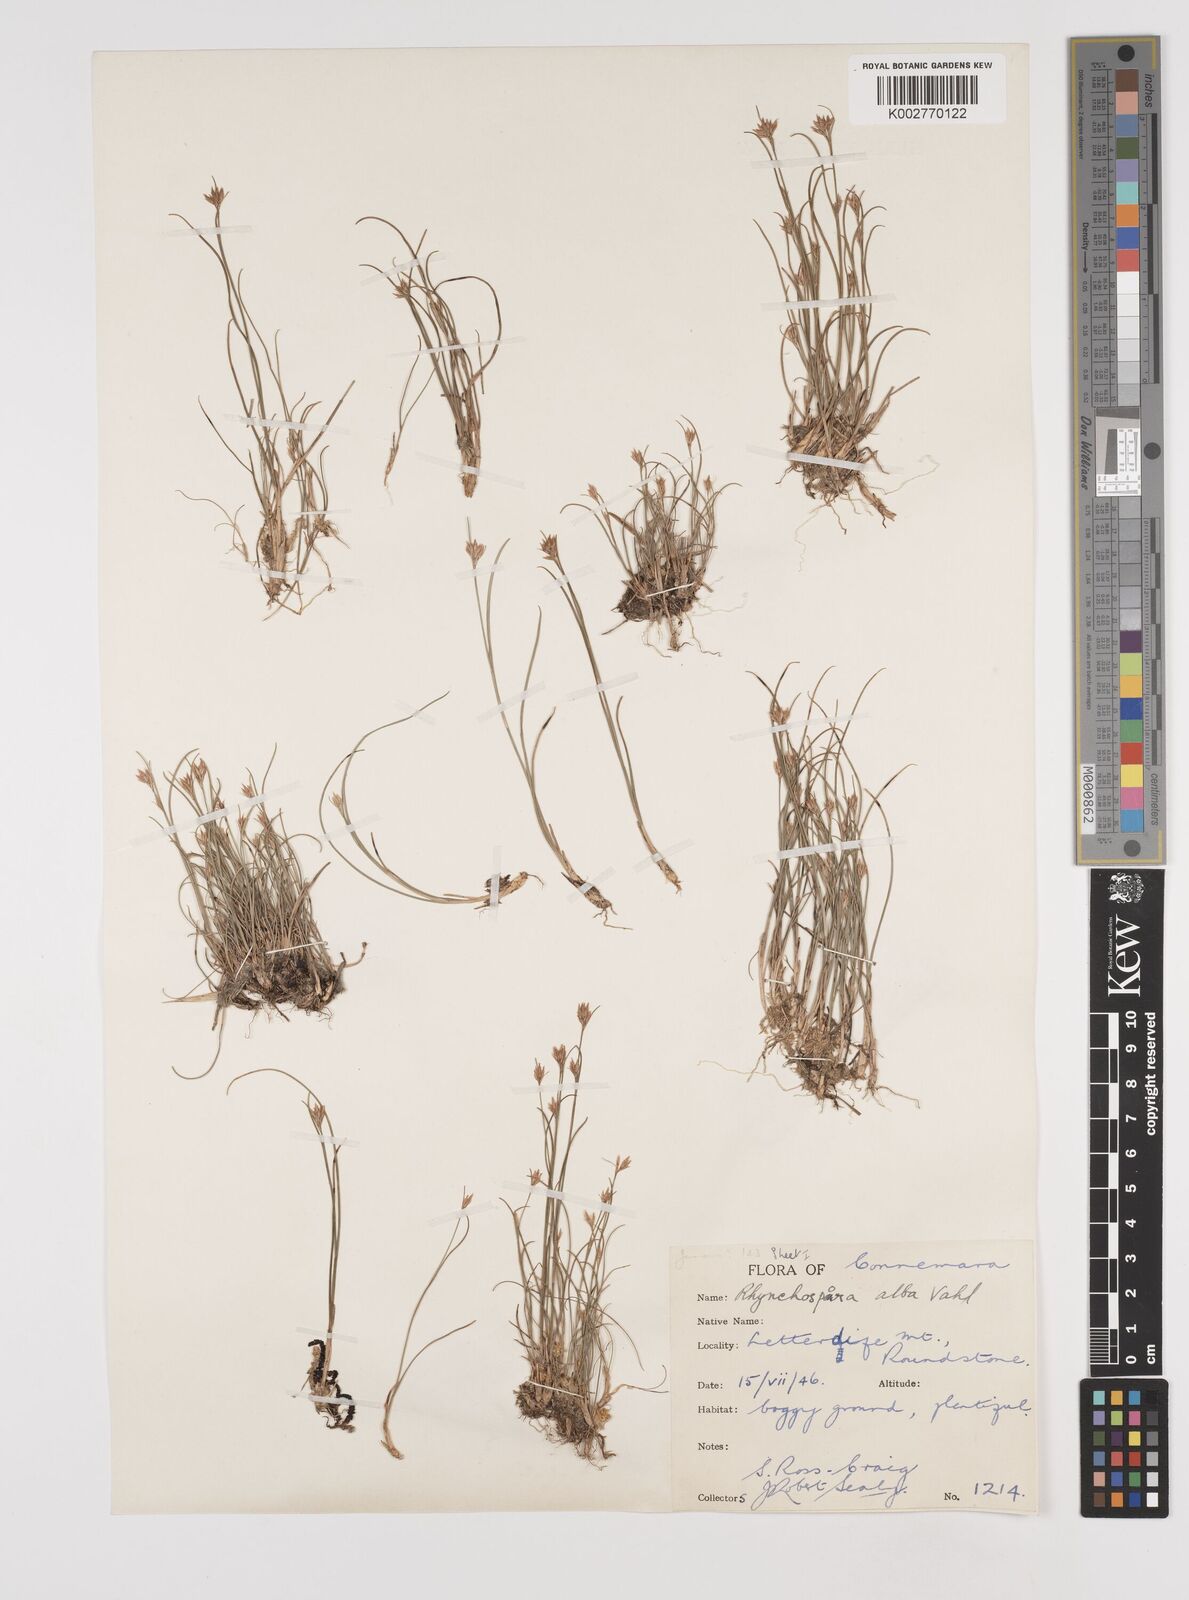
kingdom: Plantae
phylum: Tracheophyta
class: Liliopsida
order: Poales
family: Cyperaceae
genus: Rhynchospora
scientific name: Rhynchospora alba
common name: White beak-sedge
